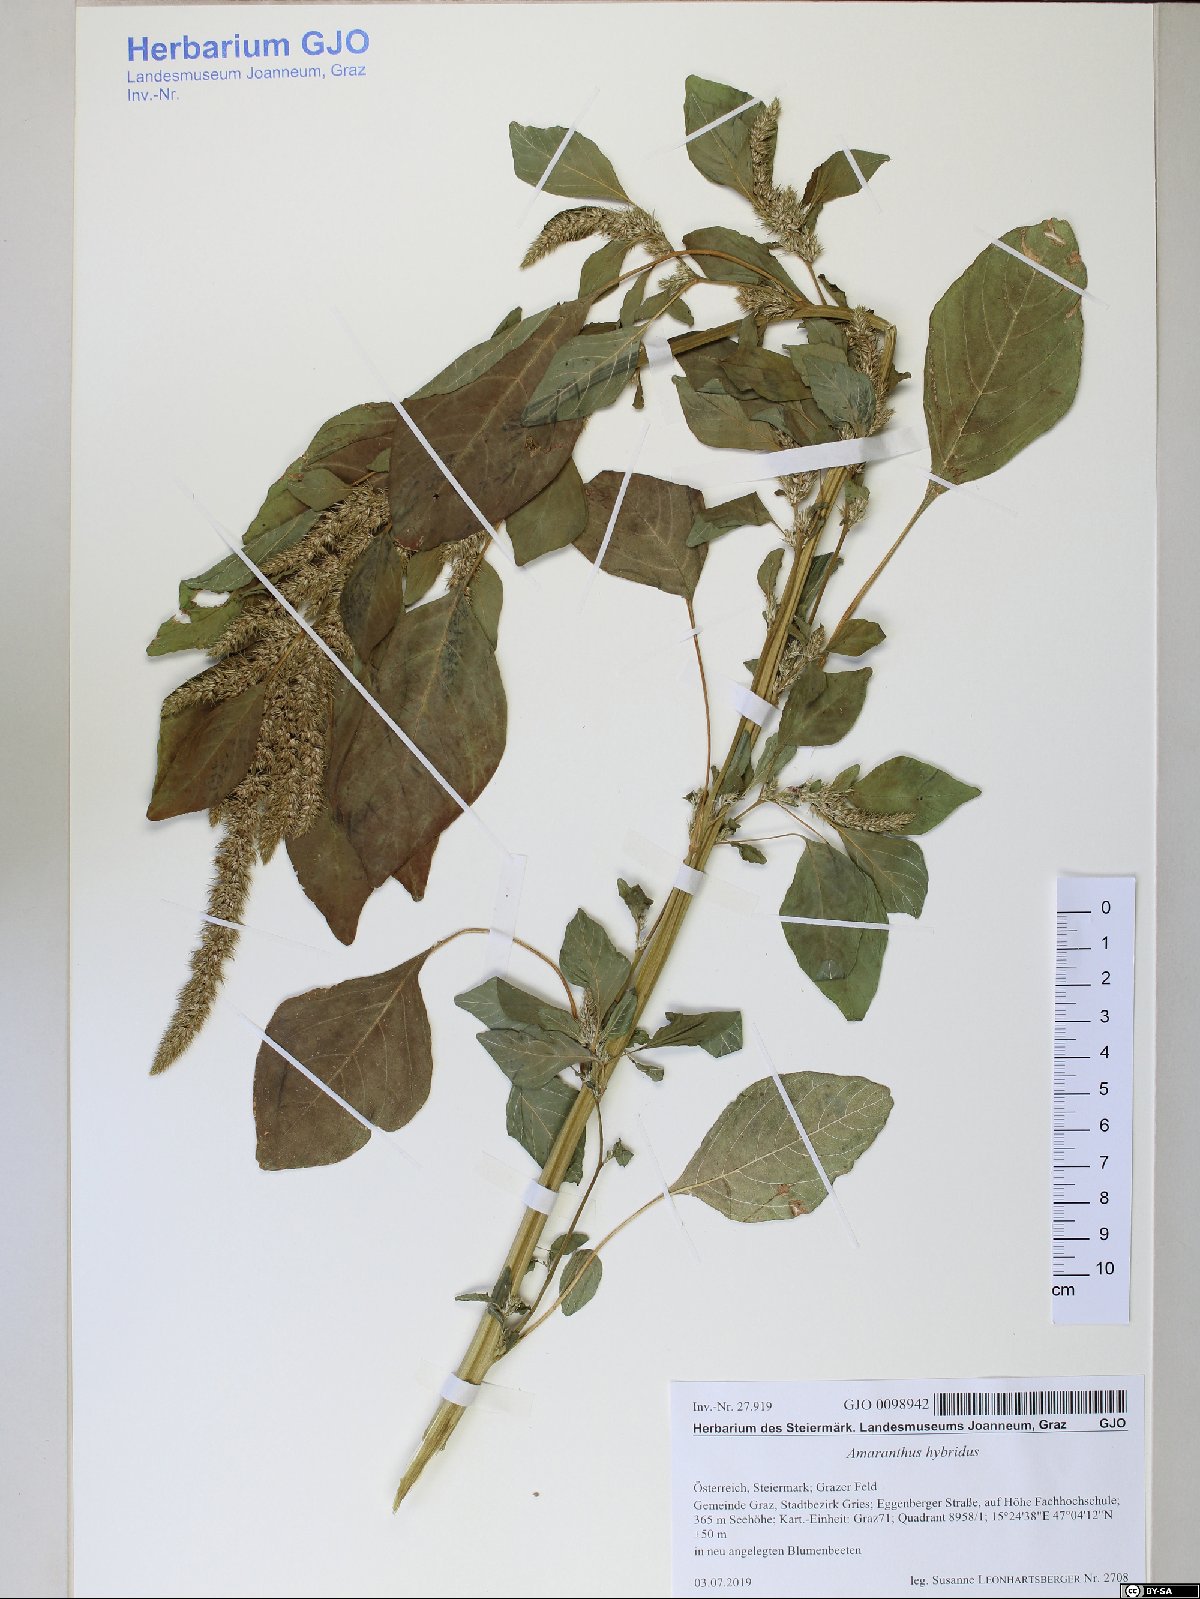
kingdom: Plantae
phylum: Tracheophyta
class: Magnoliopsida
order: Caryophyllales
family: Amaranthaceae
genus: Amaranthus
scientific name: Amaranthus hybridus
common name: Green amaranth
